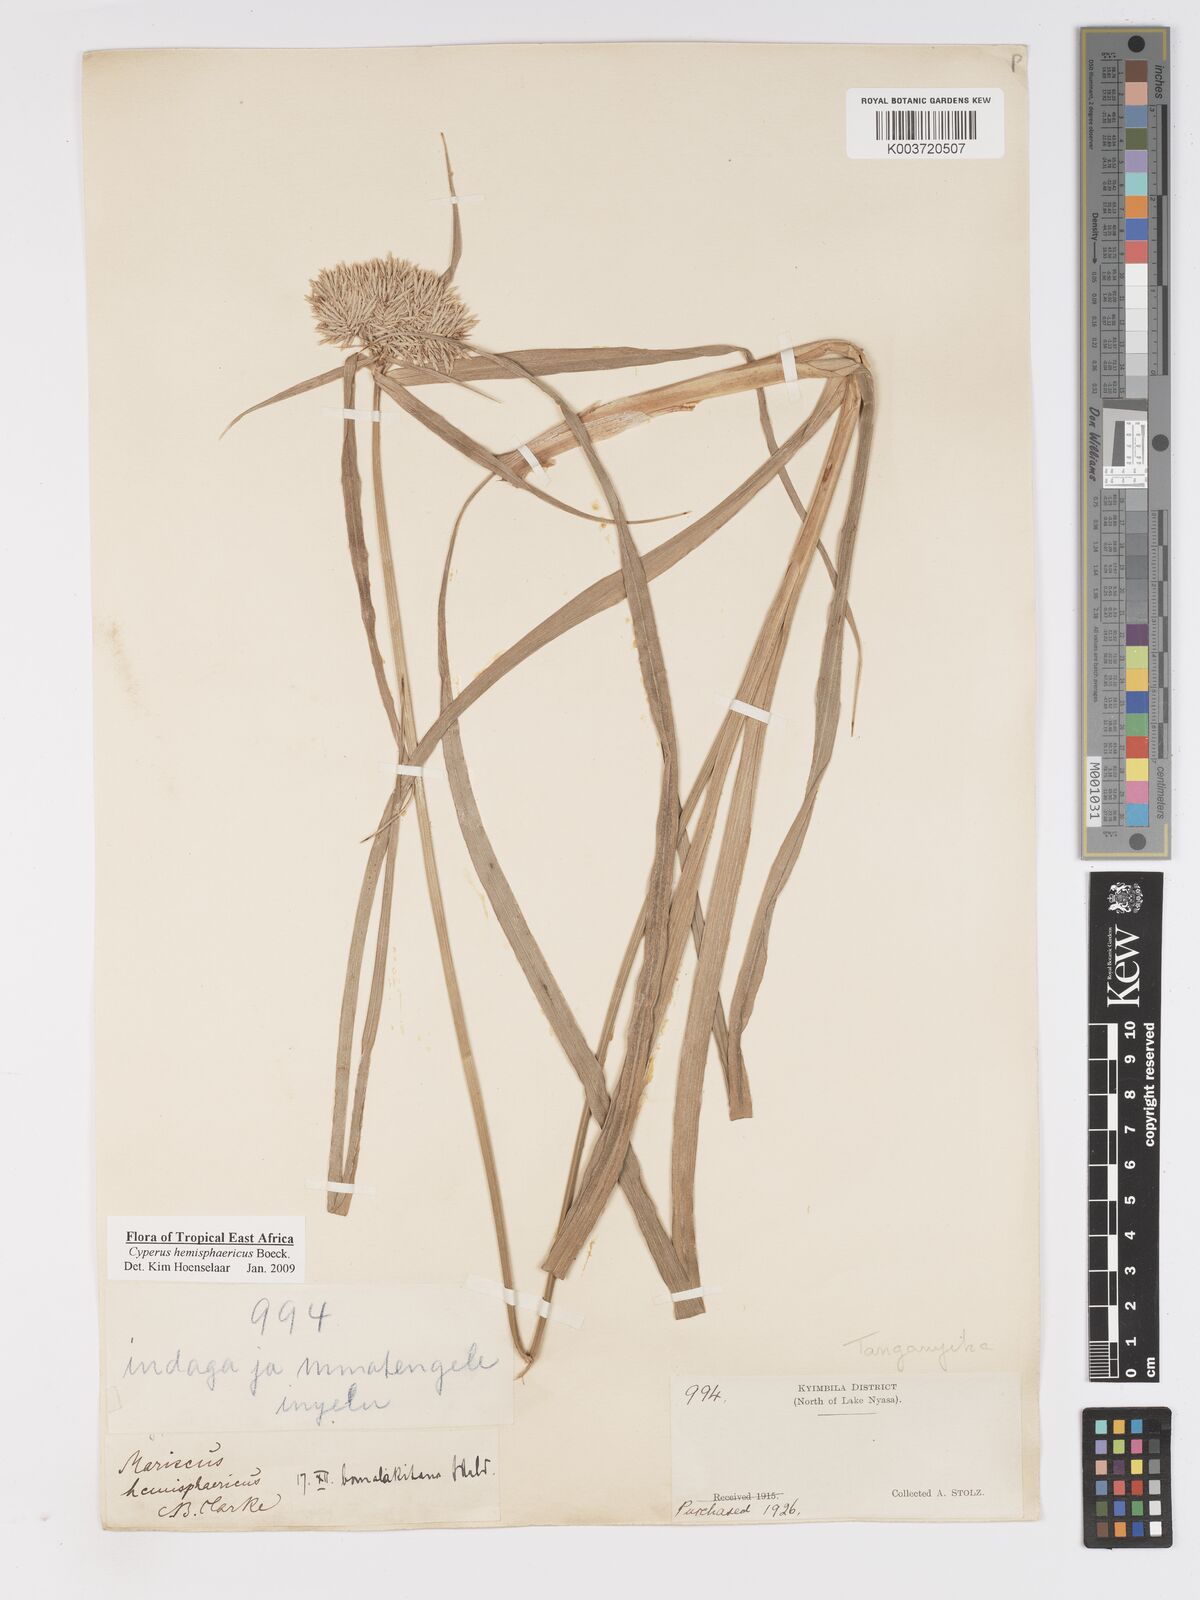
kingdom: Plantae
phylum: Tracheophyta
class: Liliopsida
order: Poales
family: Cyperaceae
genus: Cyperus
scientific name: Cyperus hemisphaericus
